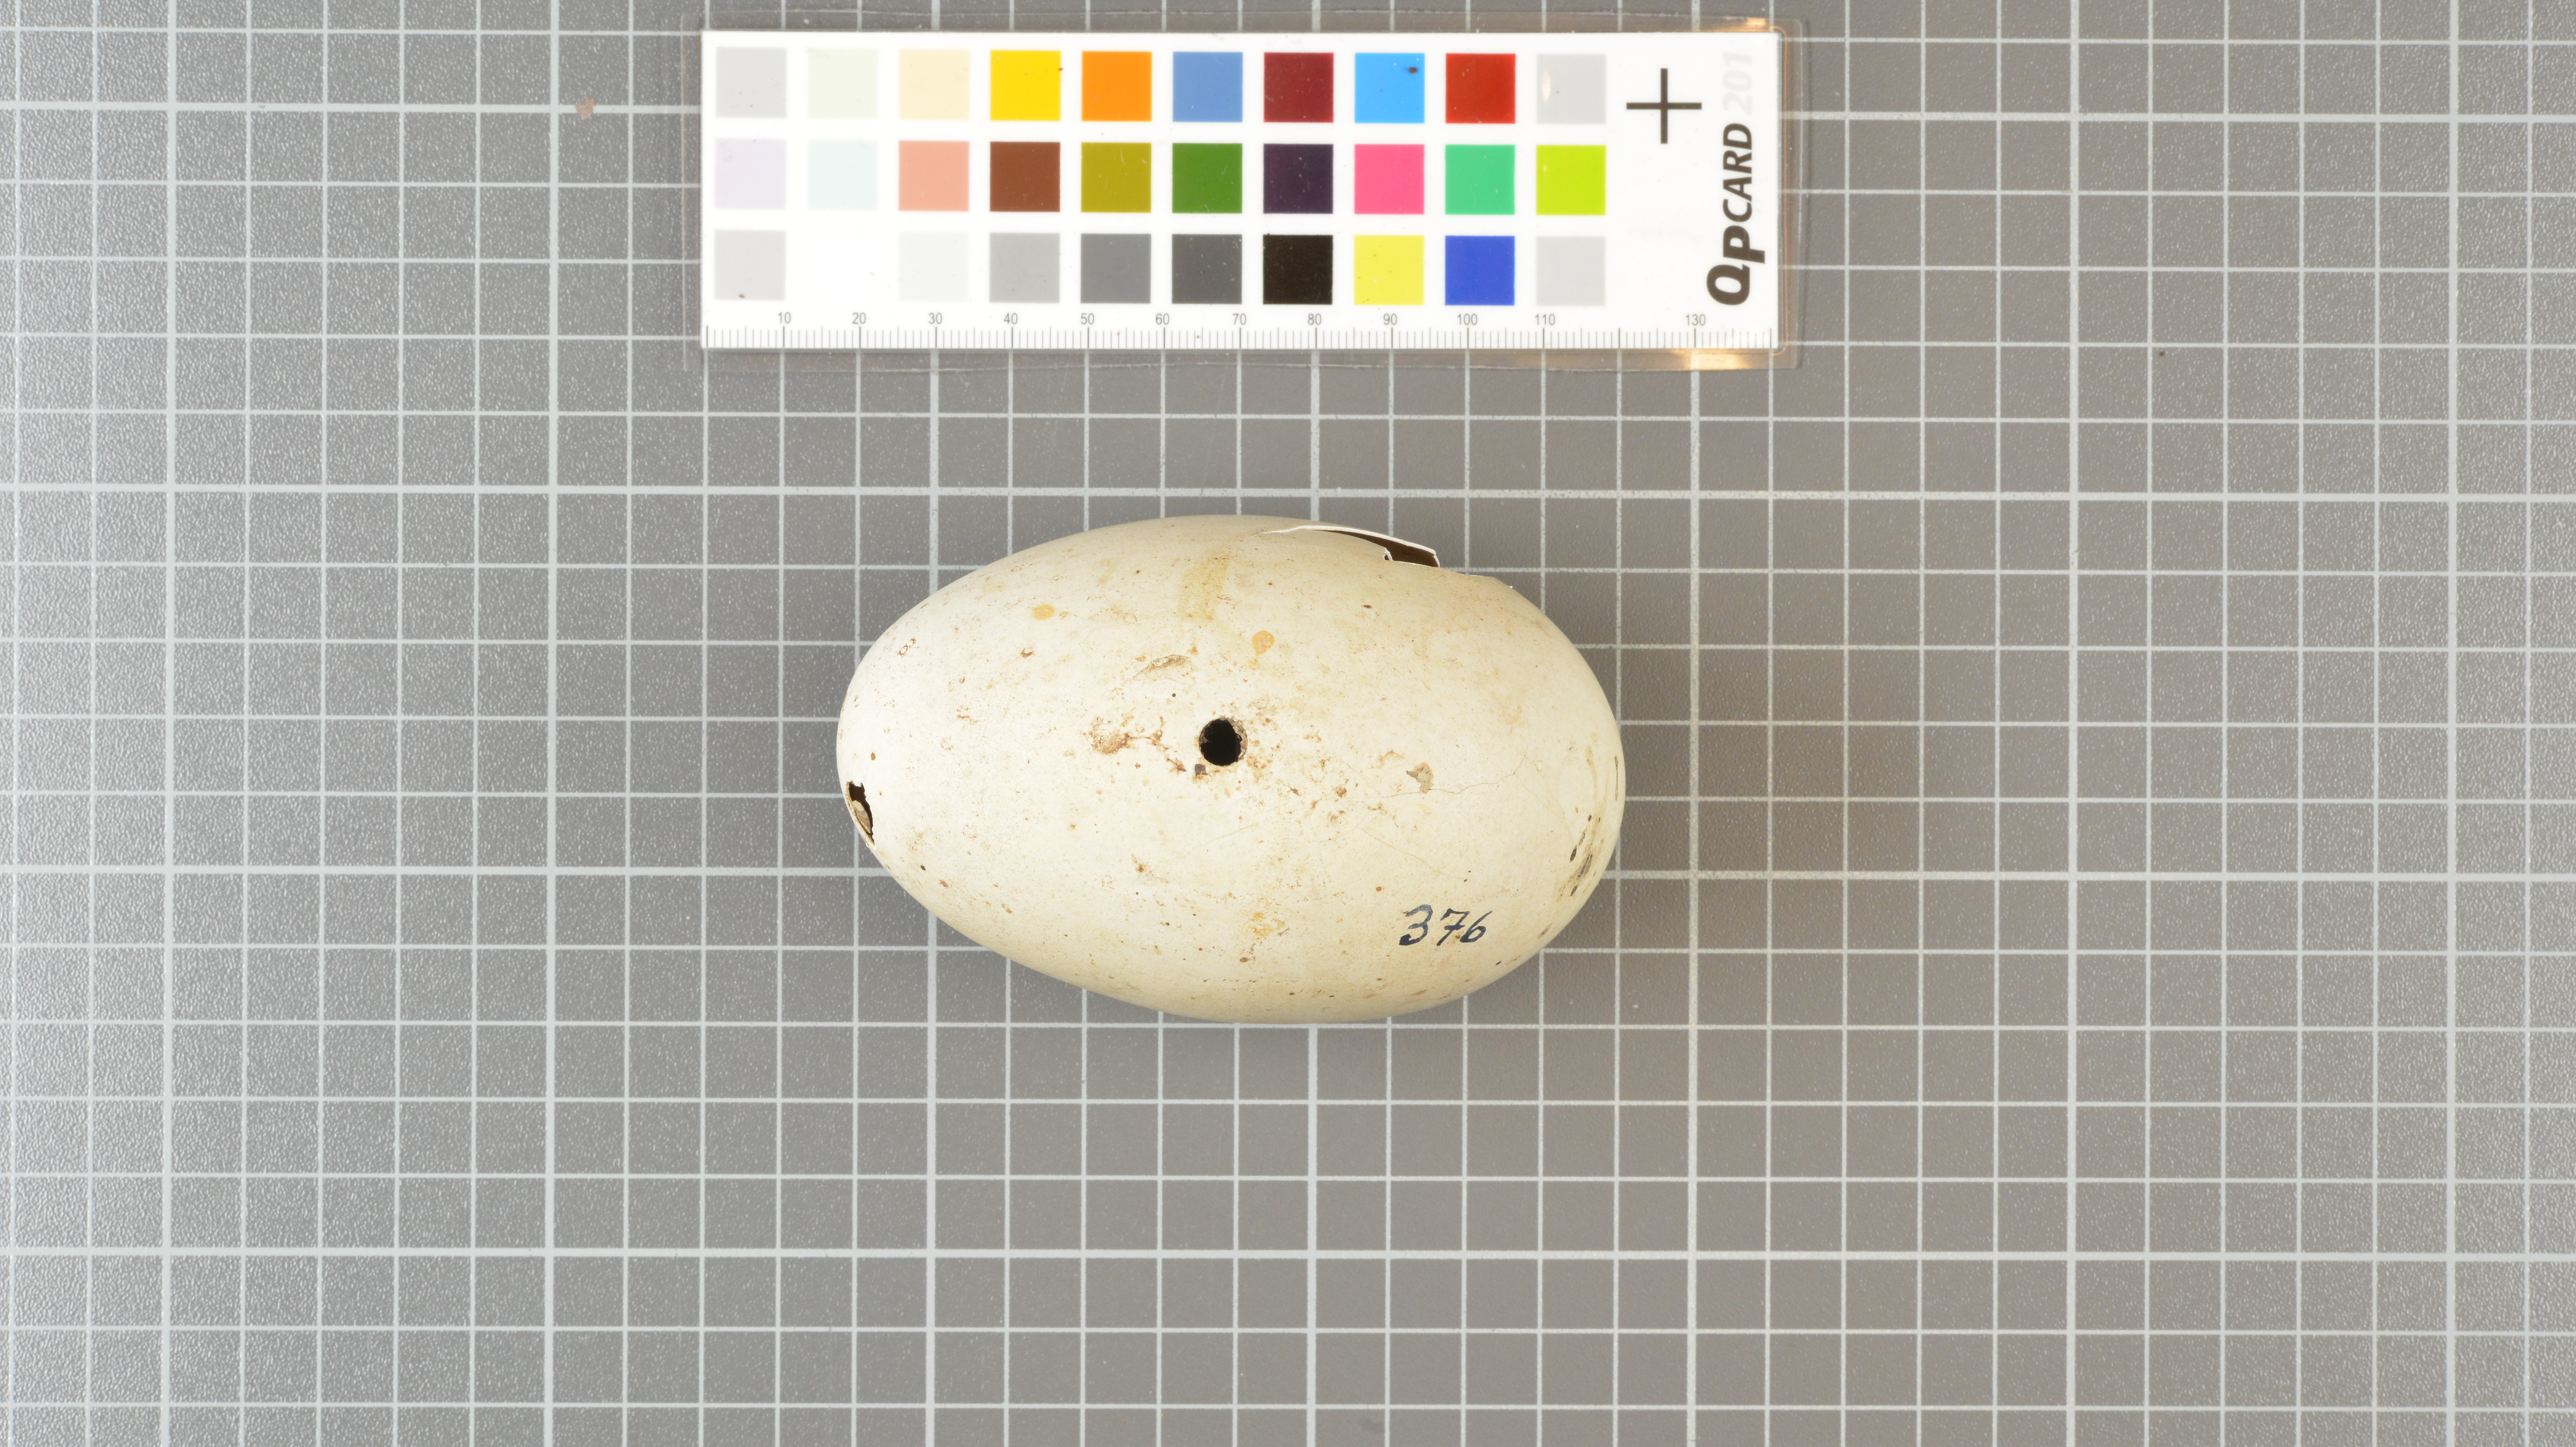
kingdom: Animalia
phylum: Chordata
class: Aves
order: Procellariiformes
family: Diomedeidae
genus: Thalassarche
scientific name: Thalassarche chlororhynchos
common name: Atlantic yellow-nosed albatross
